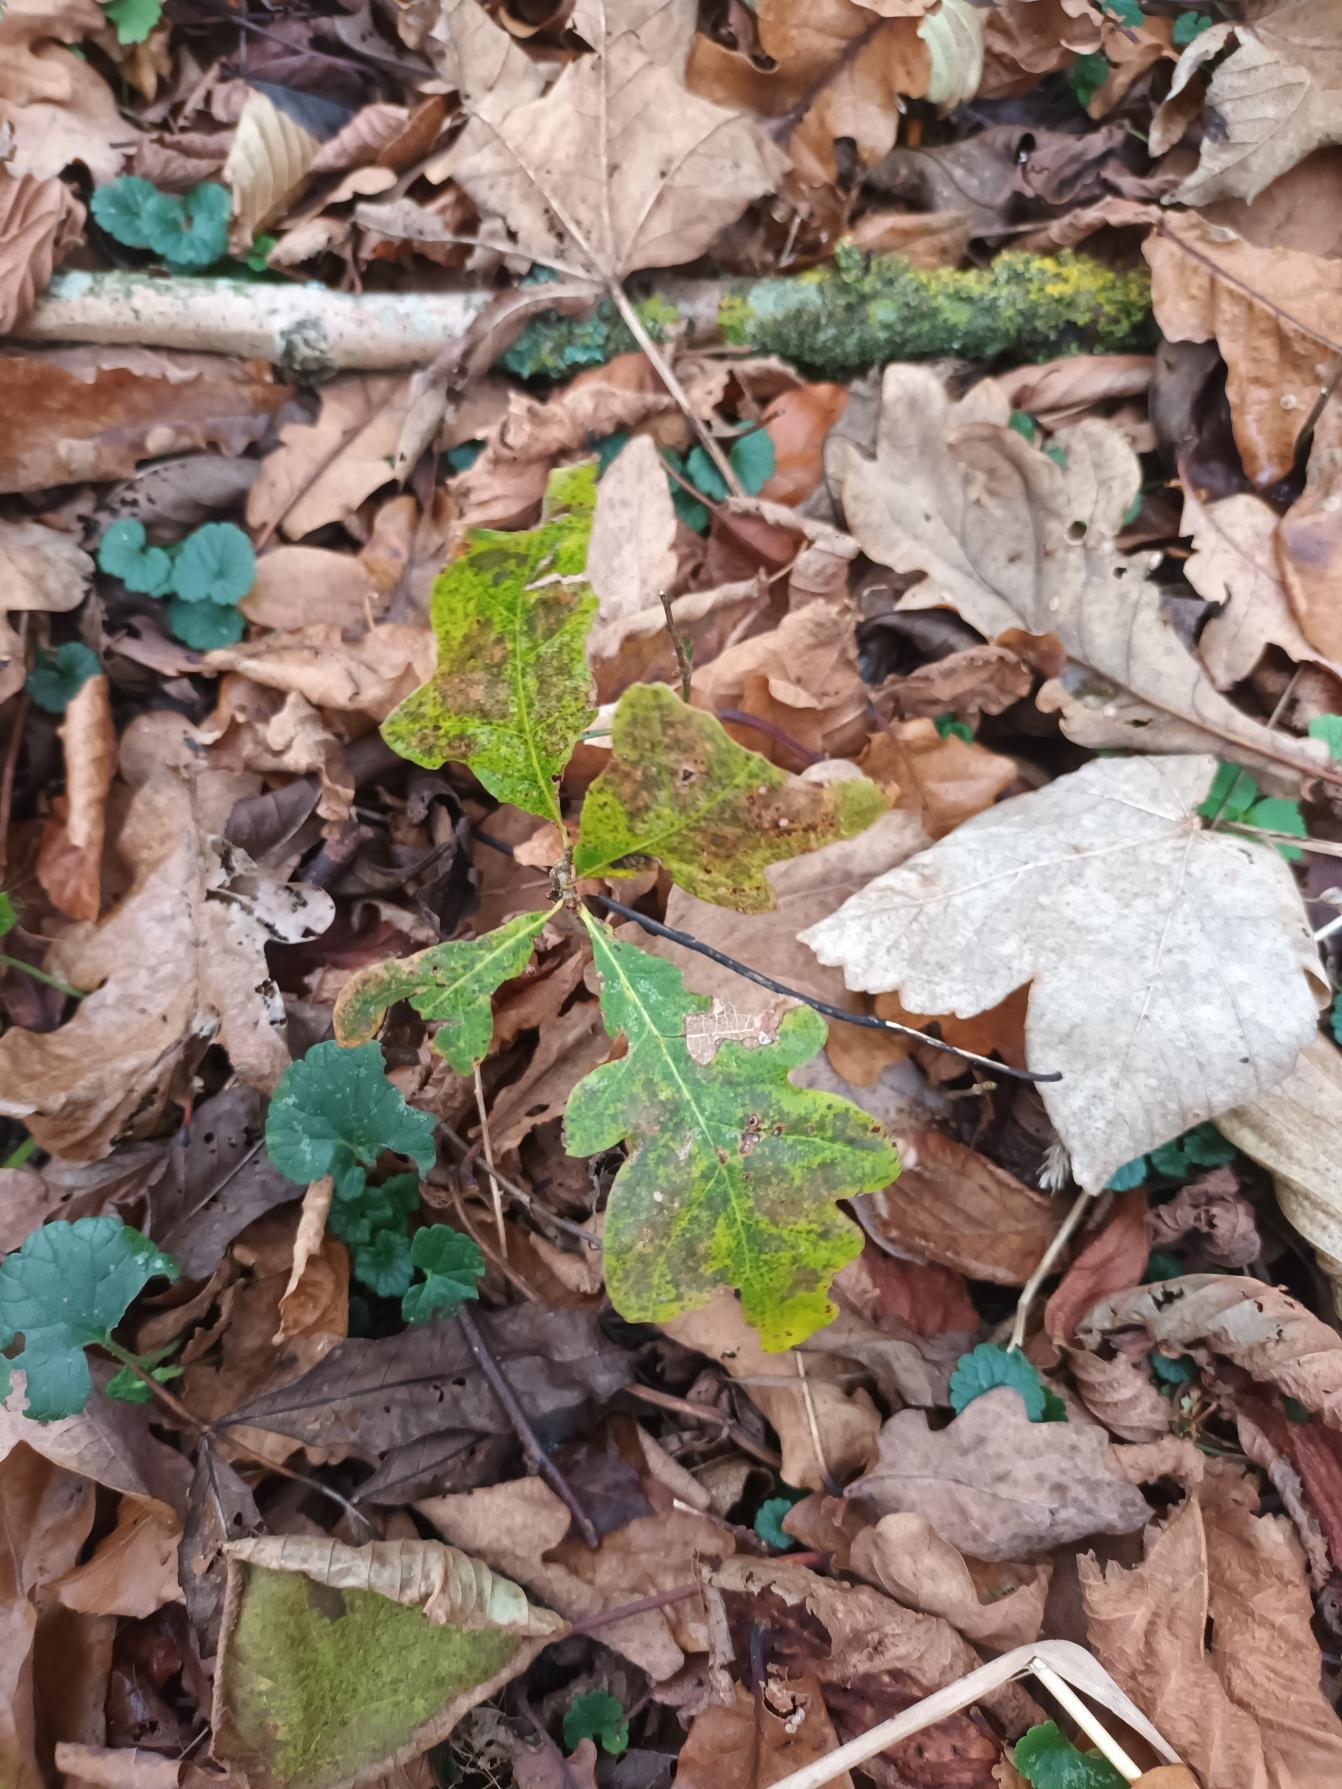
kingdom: Plantae
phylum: Tracheophyta
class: Magnoliopsida
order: Fagales
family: Fagaceae
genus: Quercus
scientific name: Quercus robur
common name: Stilk-eg/almindelig eg
